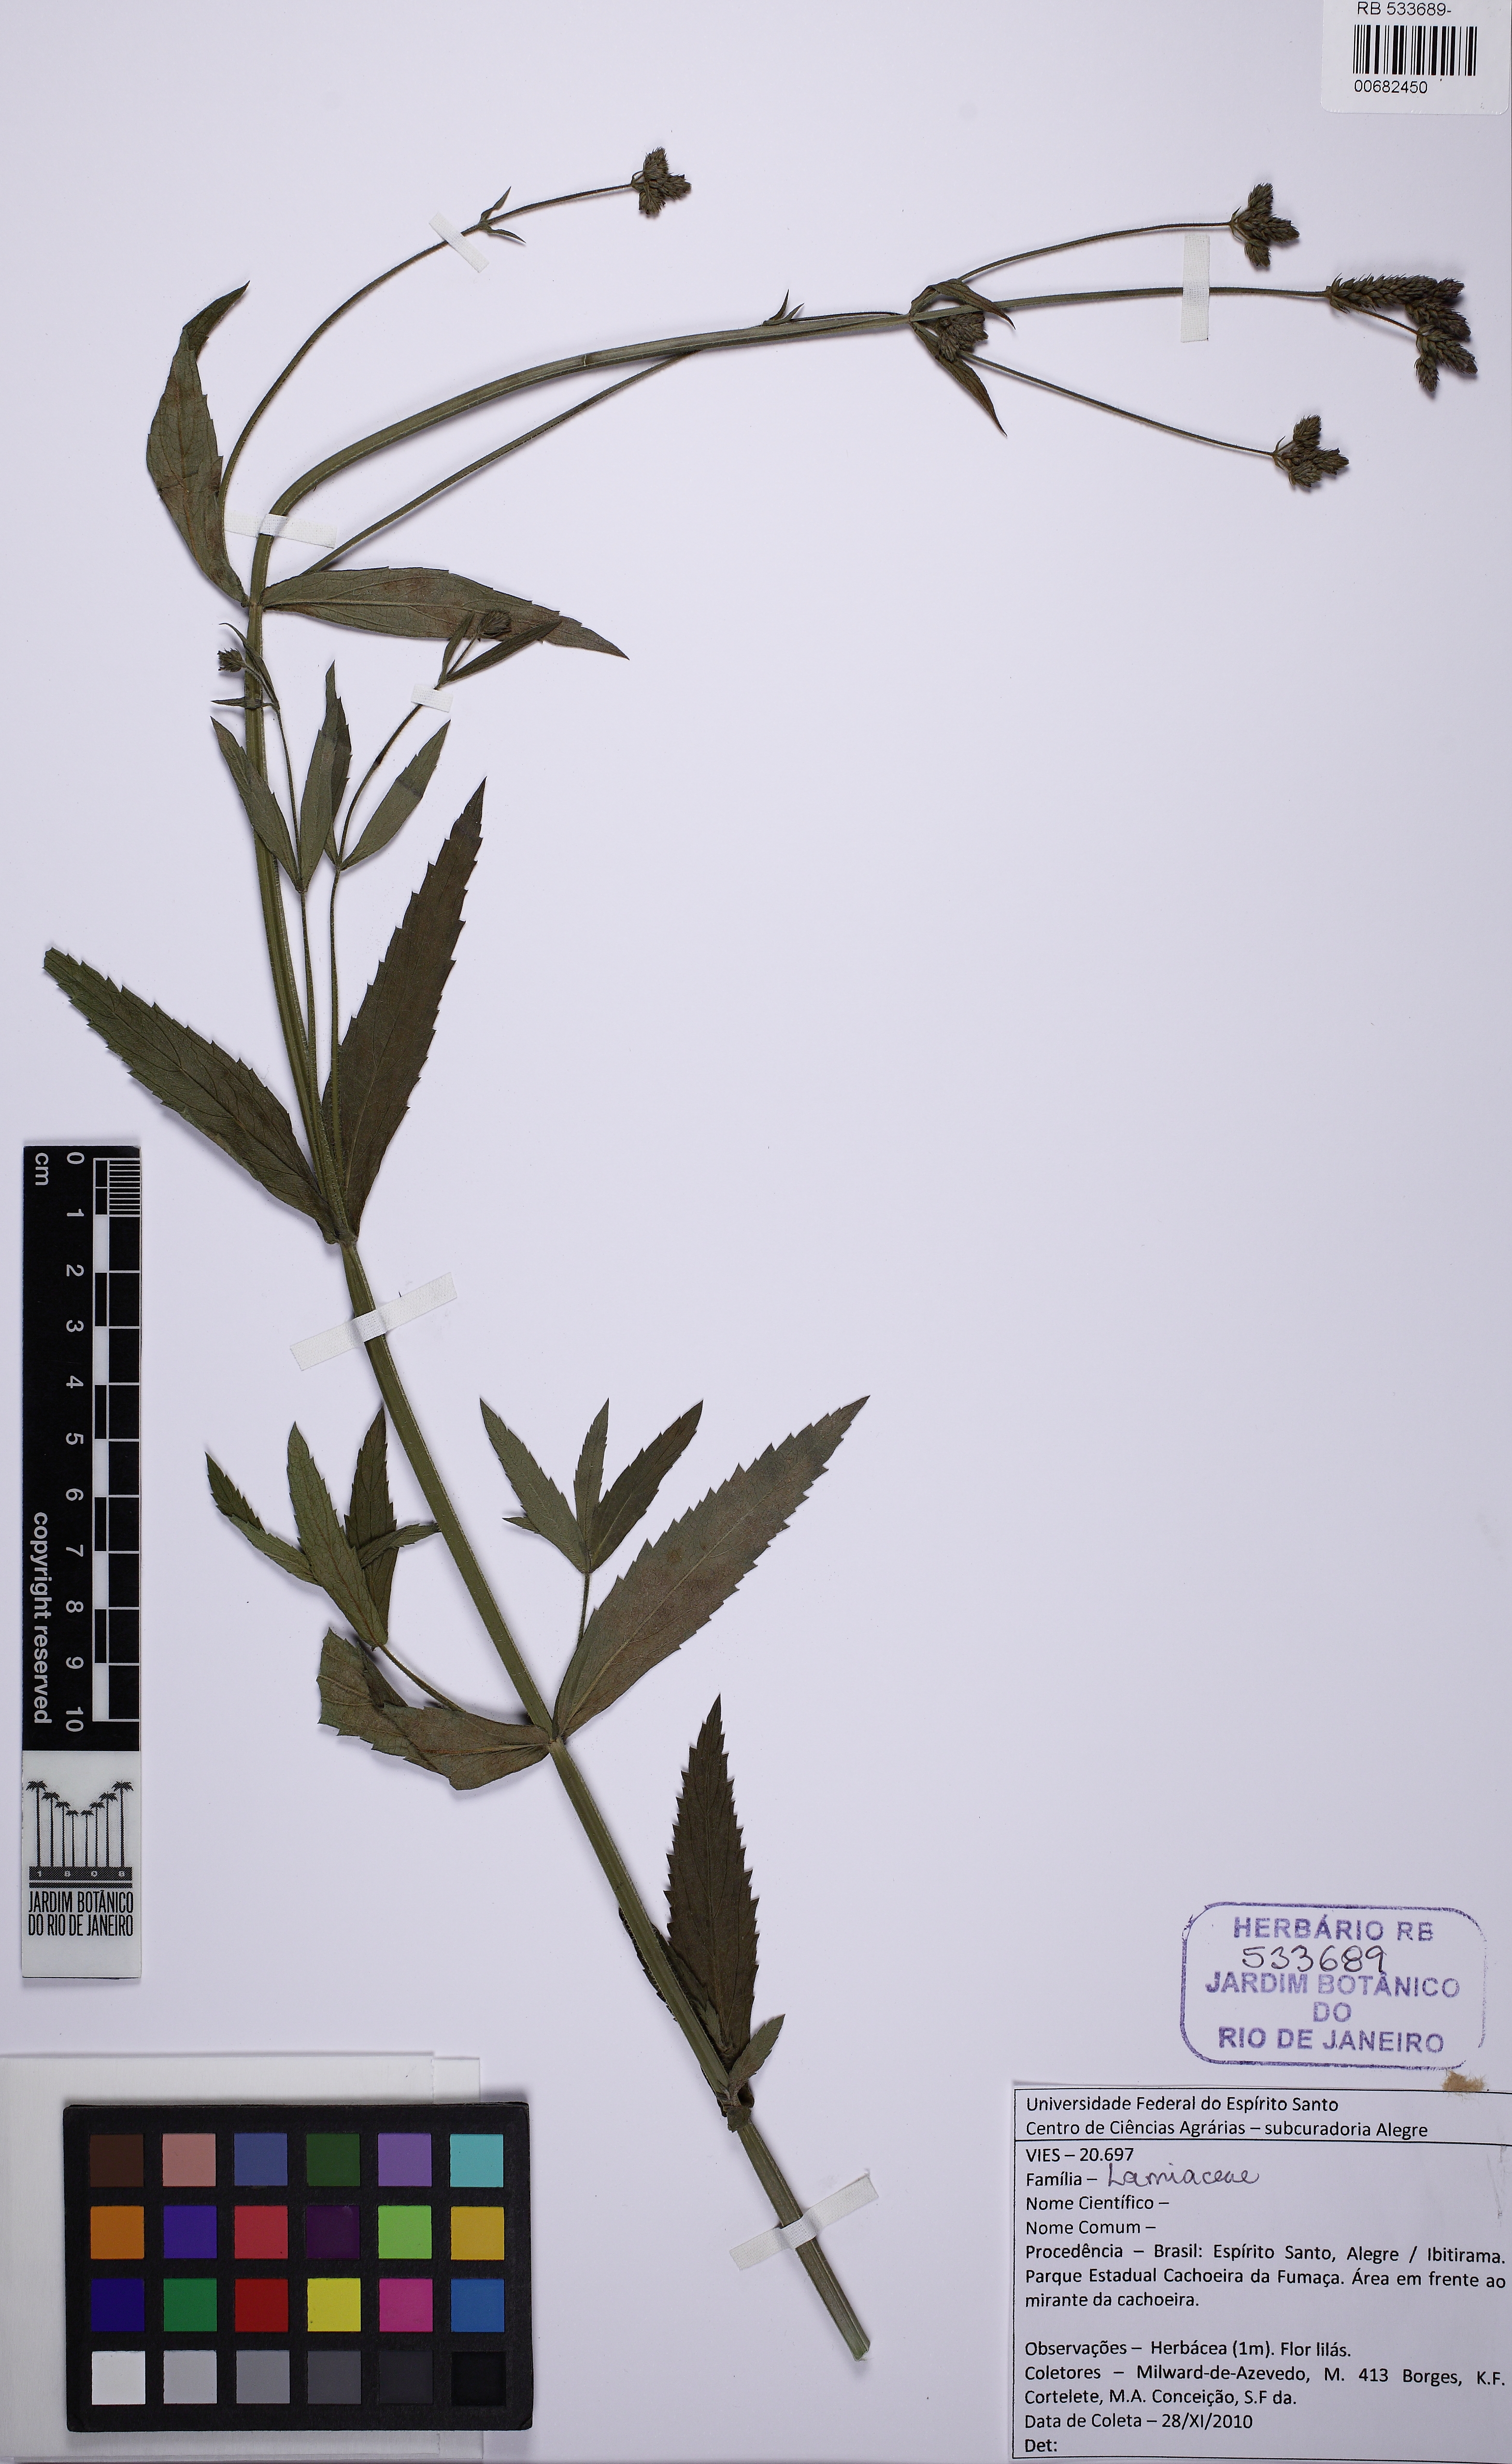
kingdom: Plantae
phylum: Tracheophyta
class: Magnoliopsida
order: Lamiales
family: Verbenaceae
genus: Verbena
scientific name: Verbena
